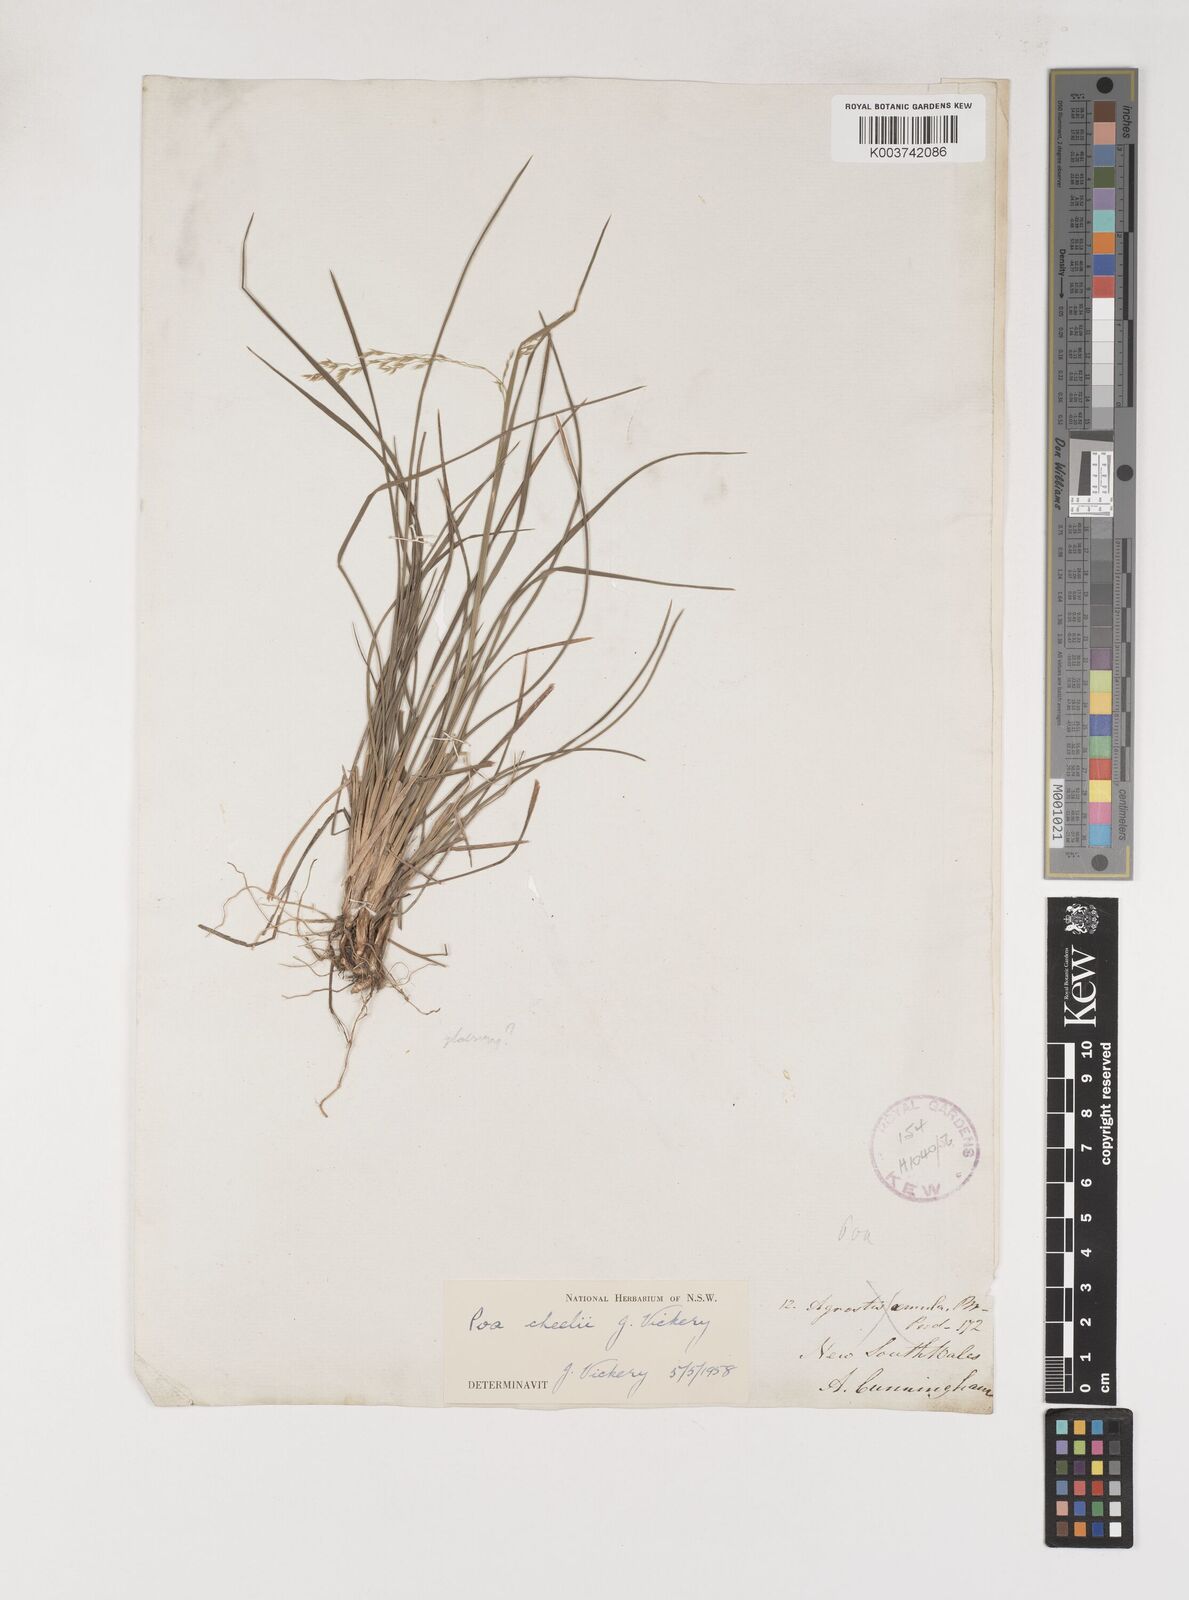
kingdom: Plantae
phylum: Tracheophyta
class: Liliopsida
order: Poales
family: Poaceae
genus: Poa
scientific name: Poa cheelii
